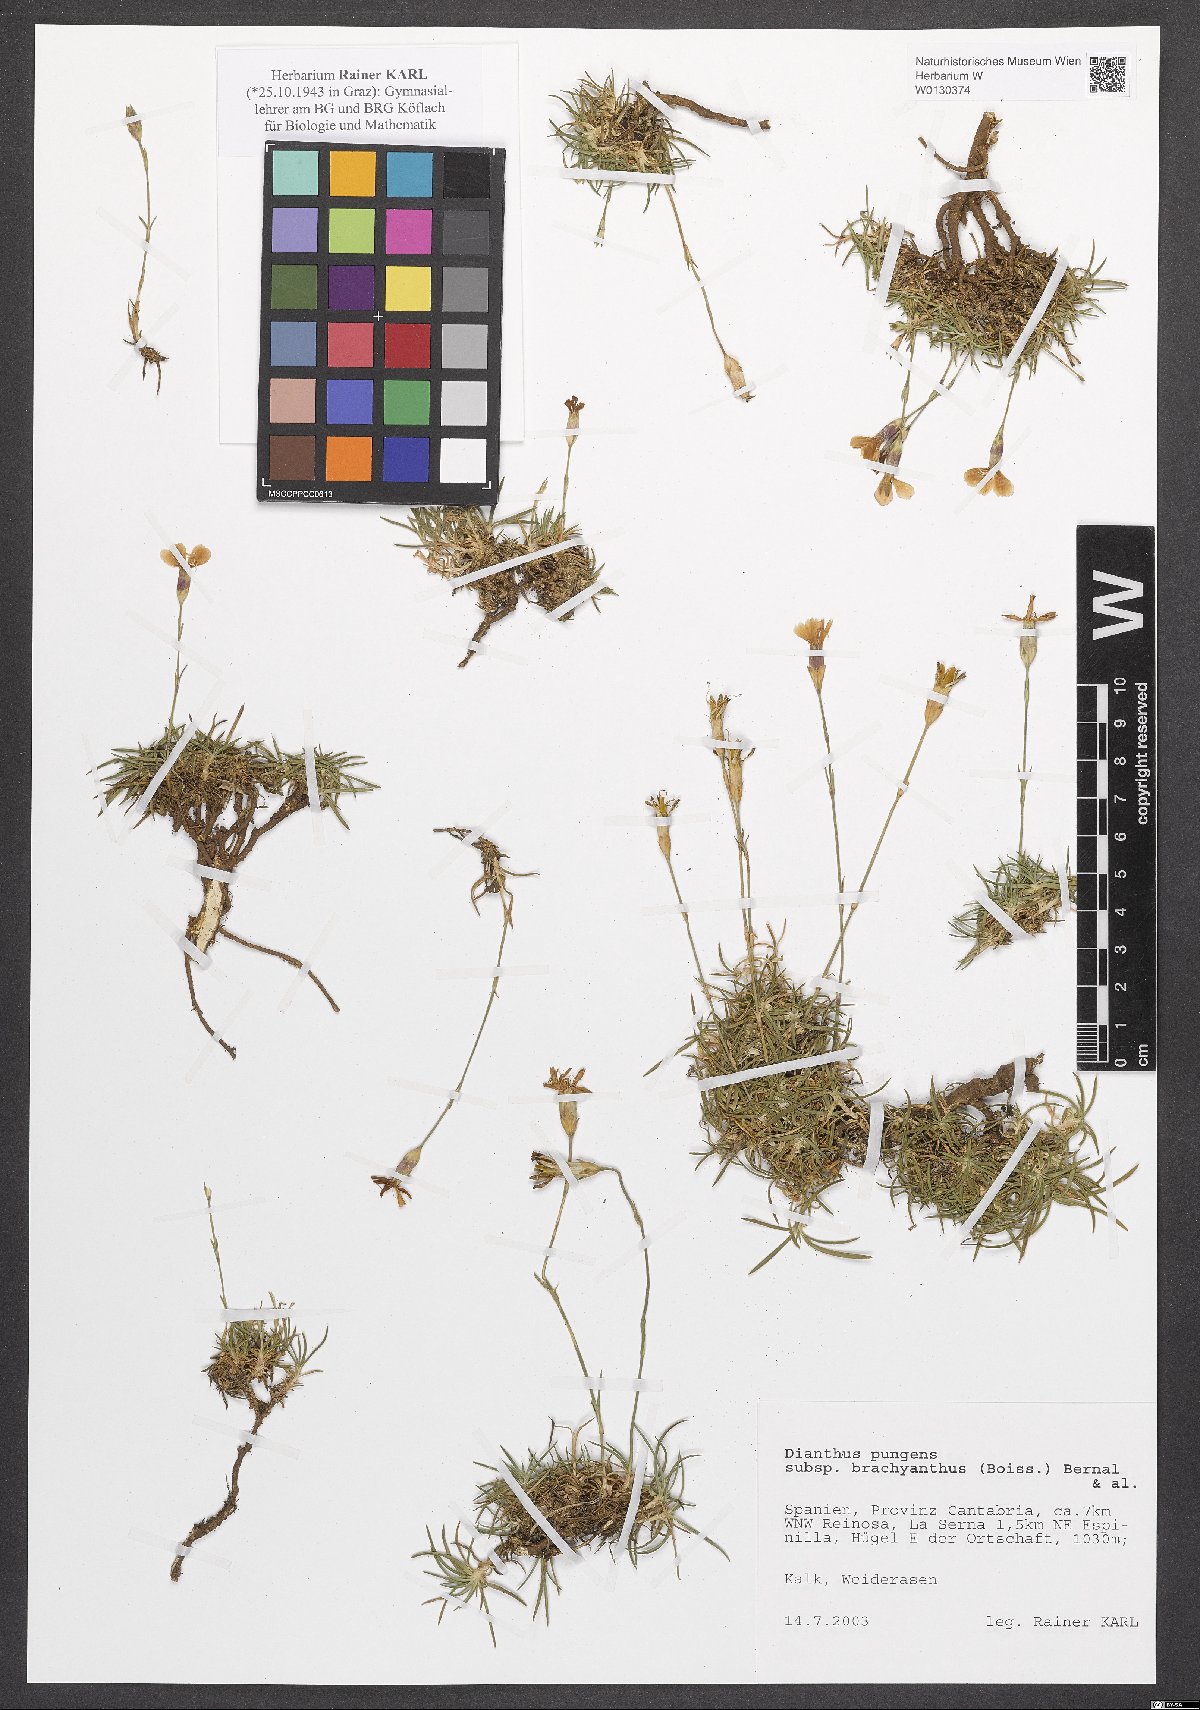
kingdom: Plantae
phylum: Tracheophyta
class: Magnoliopsida
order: Caryophyllales
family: Caryophyllaceae
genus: Dianthus
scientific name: Dianthus pungens
